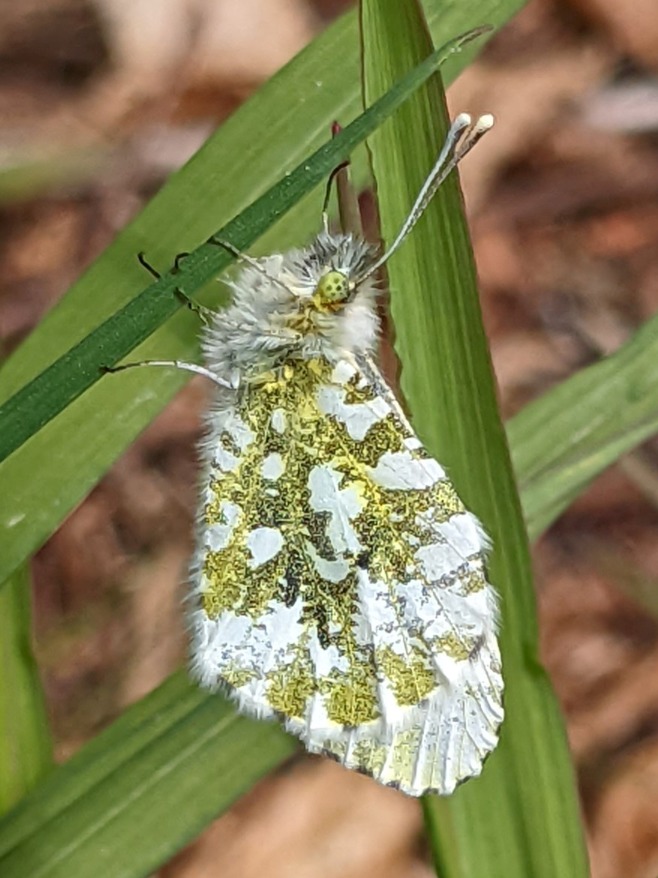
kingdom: Animalia
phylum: Arthropoda
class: Insecta
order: Lepidoptera
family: Pieridae
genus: Anthocharis
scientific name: Anthocharis cardamines
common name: Aurora
